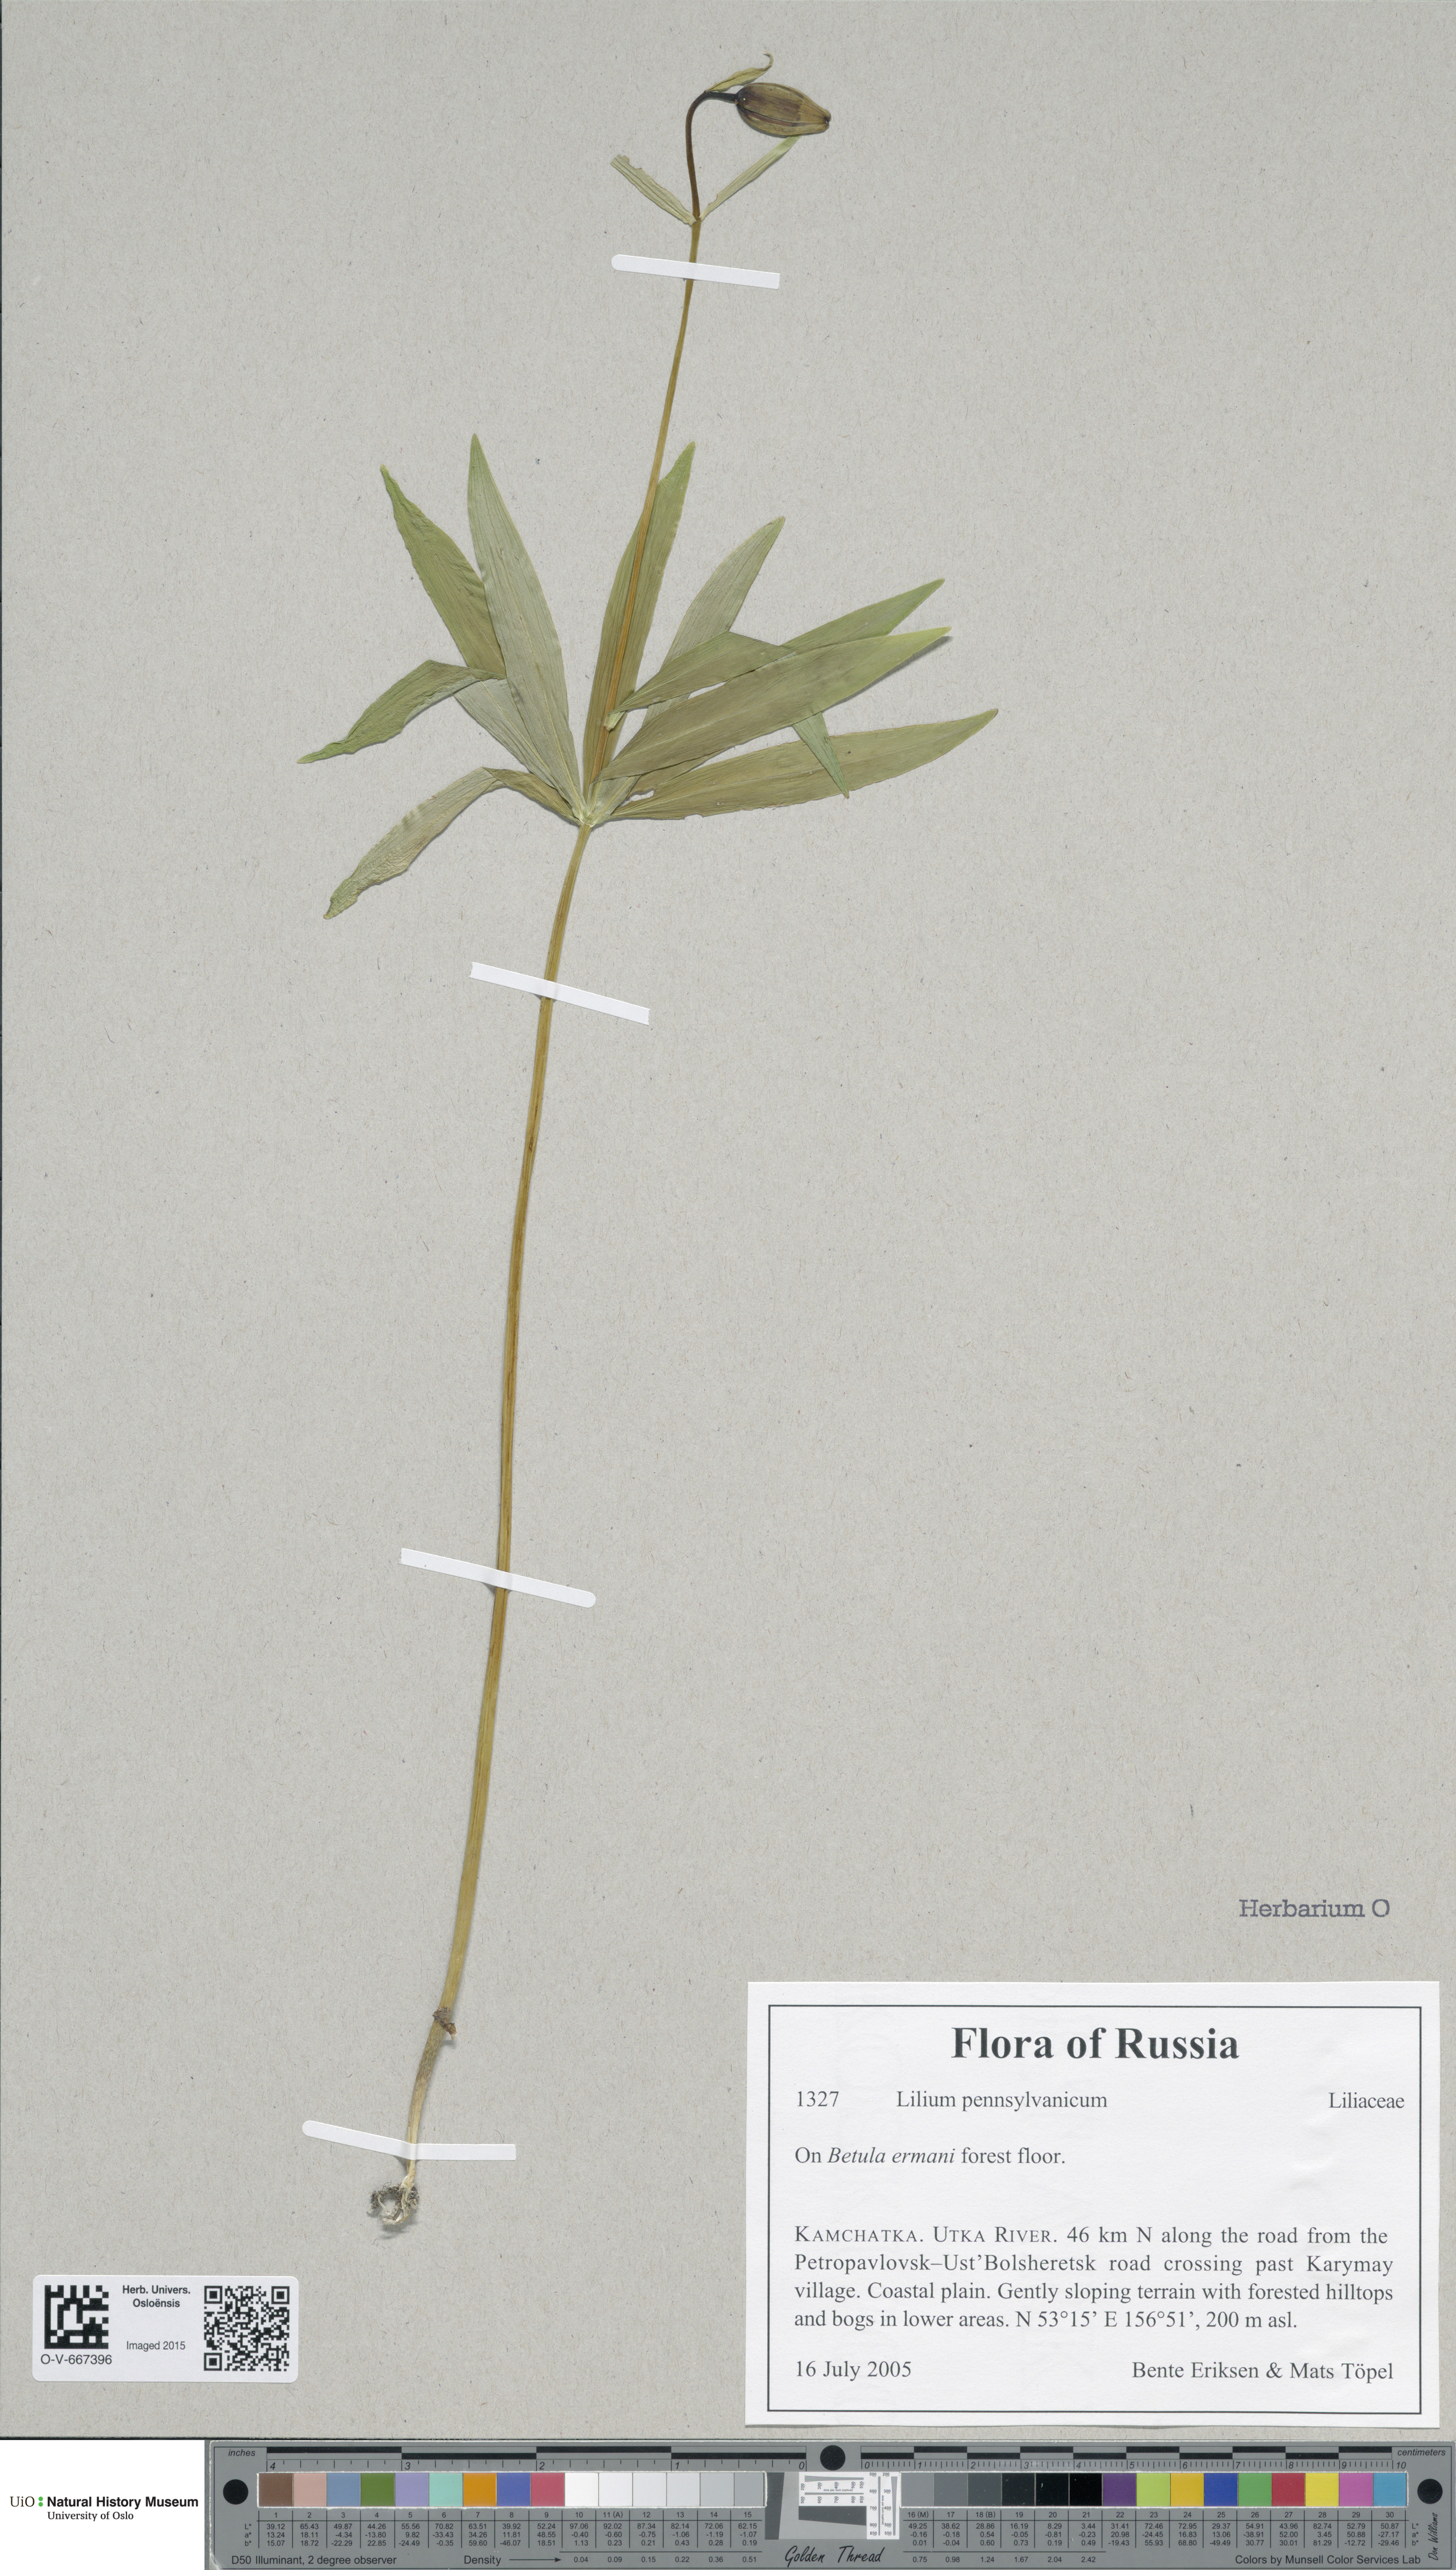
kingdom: Plantae
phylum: Tracheophyta
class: Liliopsida
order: Liliales
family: Liliaceae
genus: Lilium
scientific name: Lilium pensylvanicum
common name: Candlestick lily
